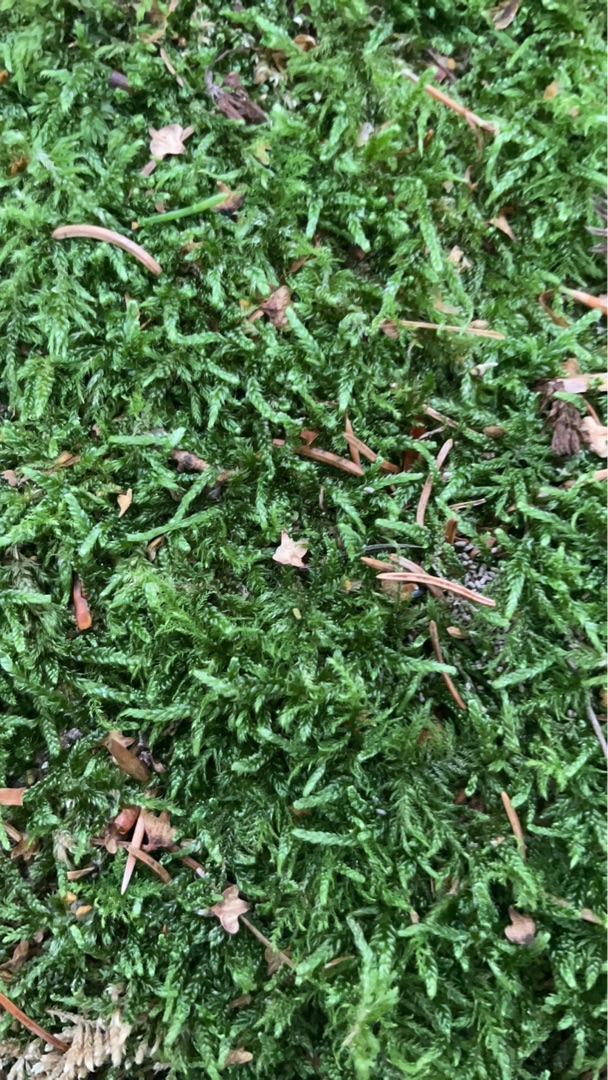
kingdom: Plantae
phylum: Bryophyta
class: Bryopsida
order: Hypnales
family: Hypnaceae
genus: Hypnum
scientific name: Hypnum
